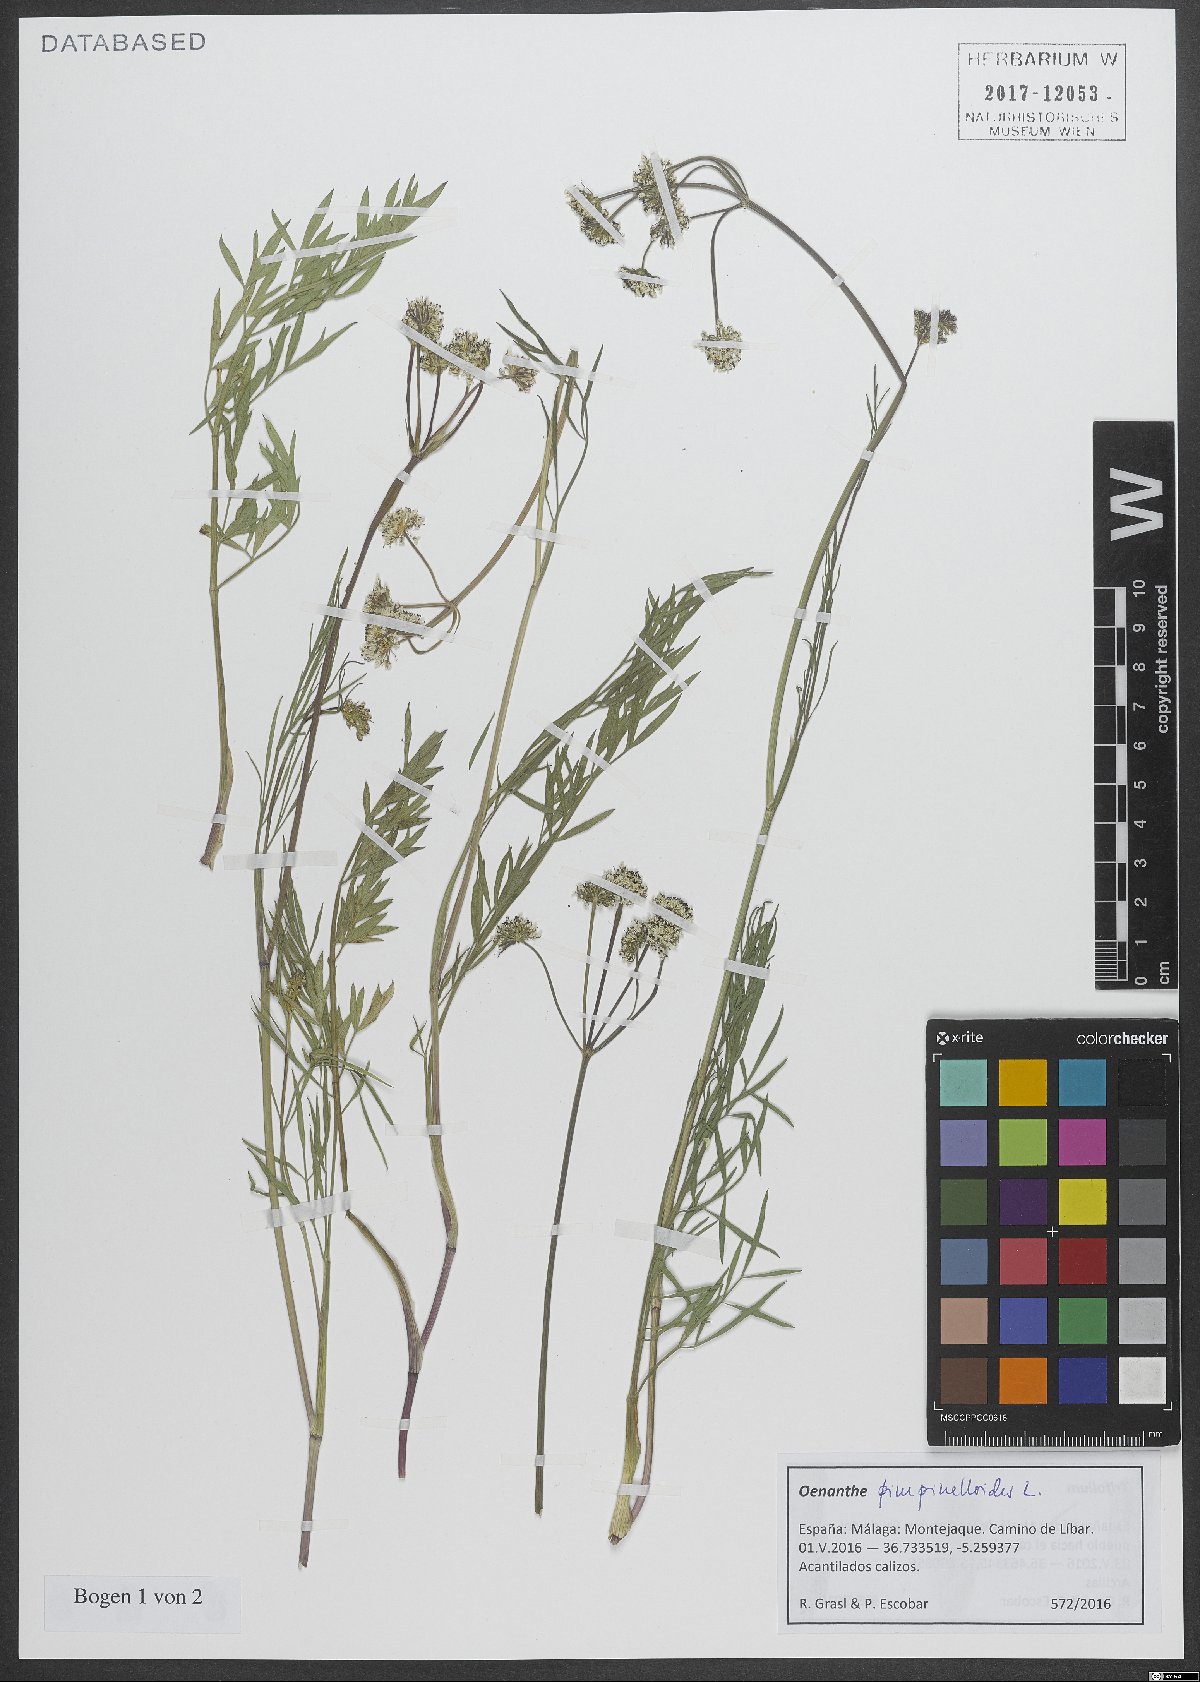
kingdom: Plantae
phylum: Tracheophyta
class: Magnoliopsida
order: Apiales
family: Apiaceae
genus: Oenanthe
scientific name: Oenanthe pimpinelloides
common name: Corky-fruited water-dropwort
